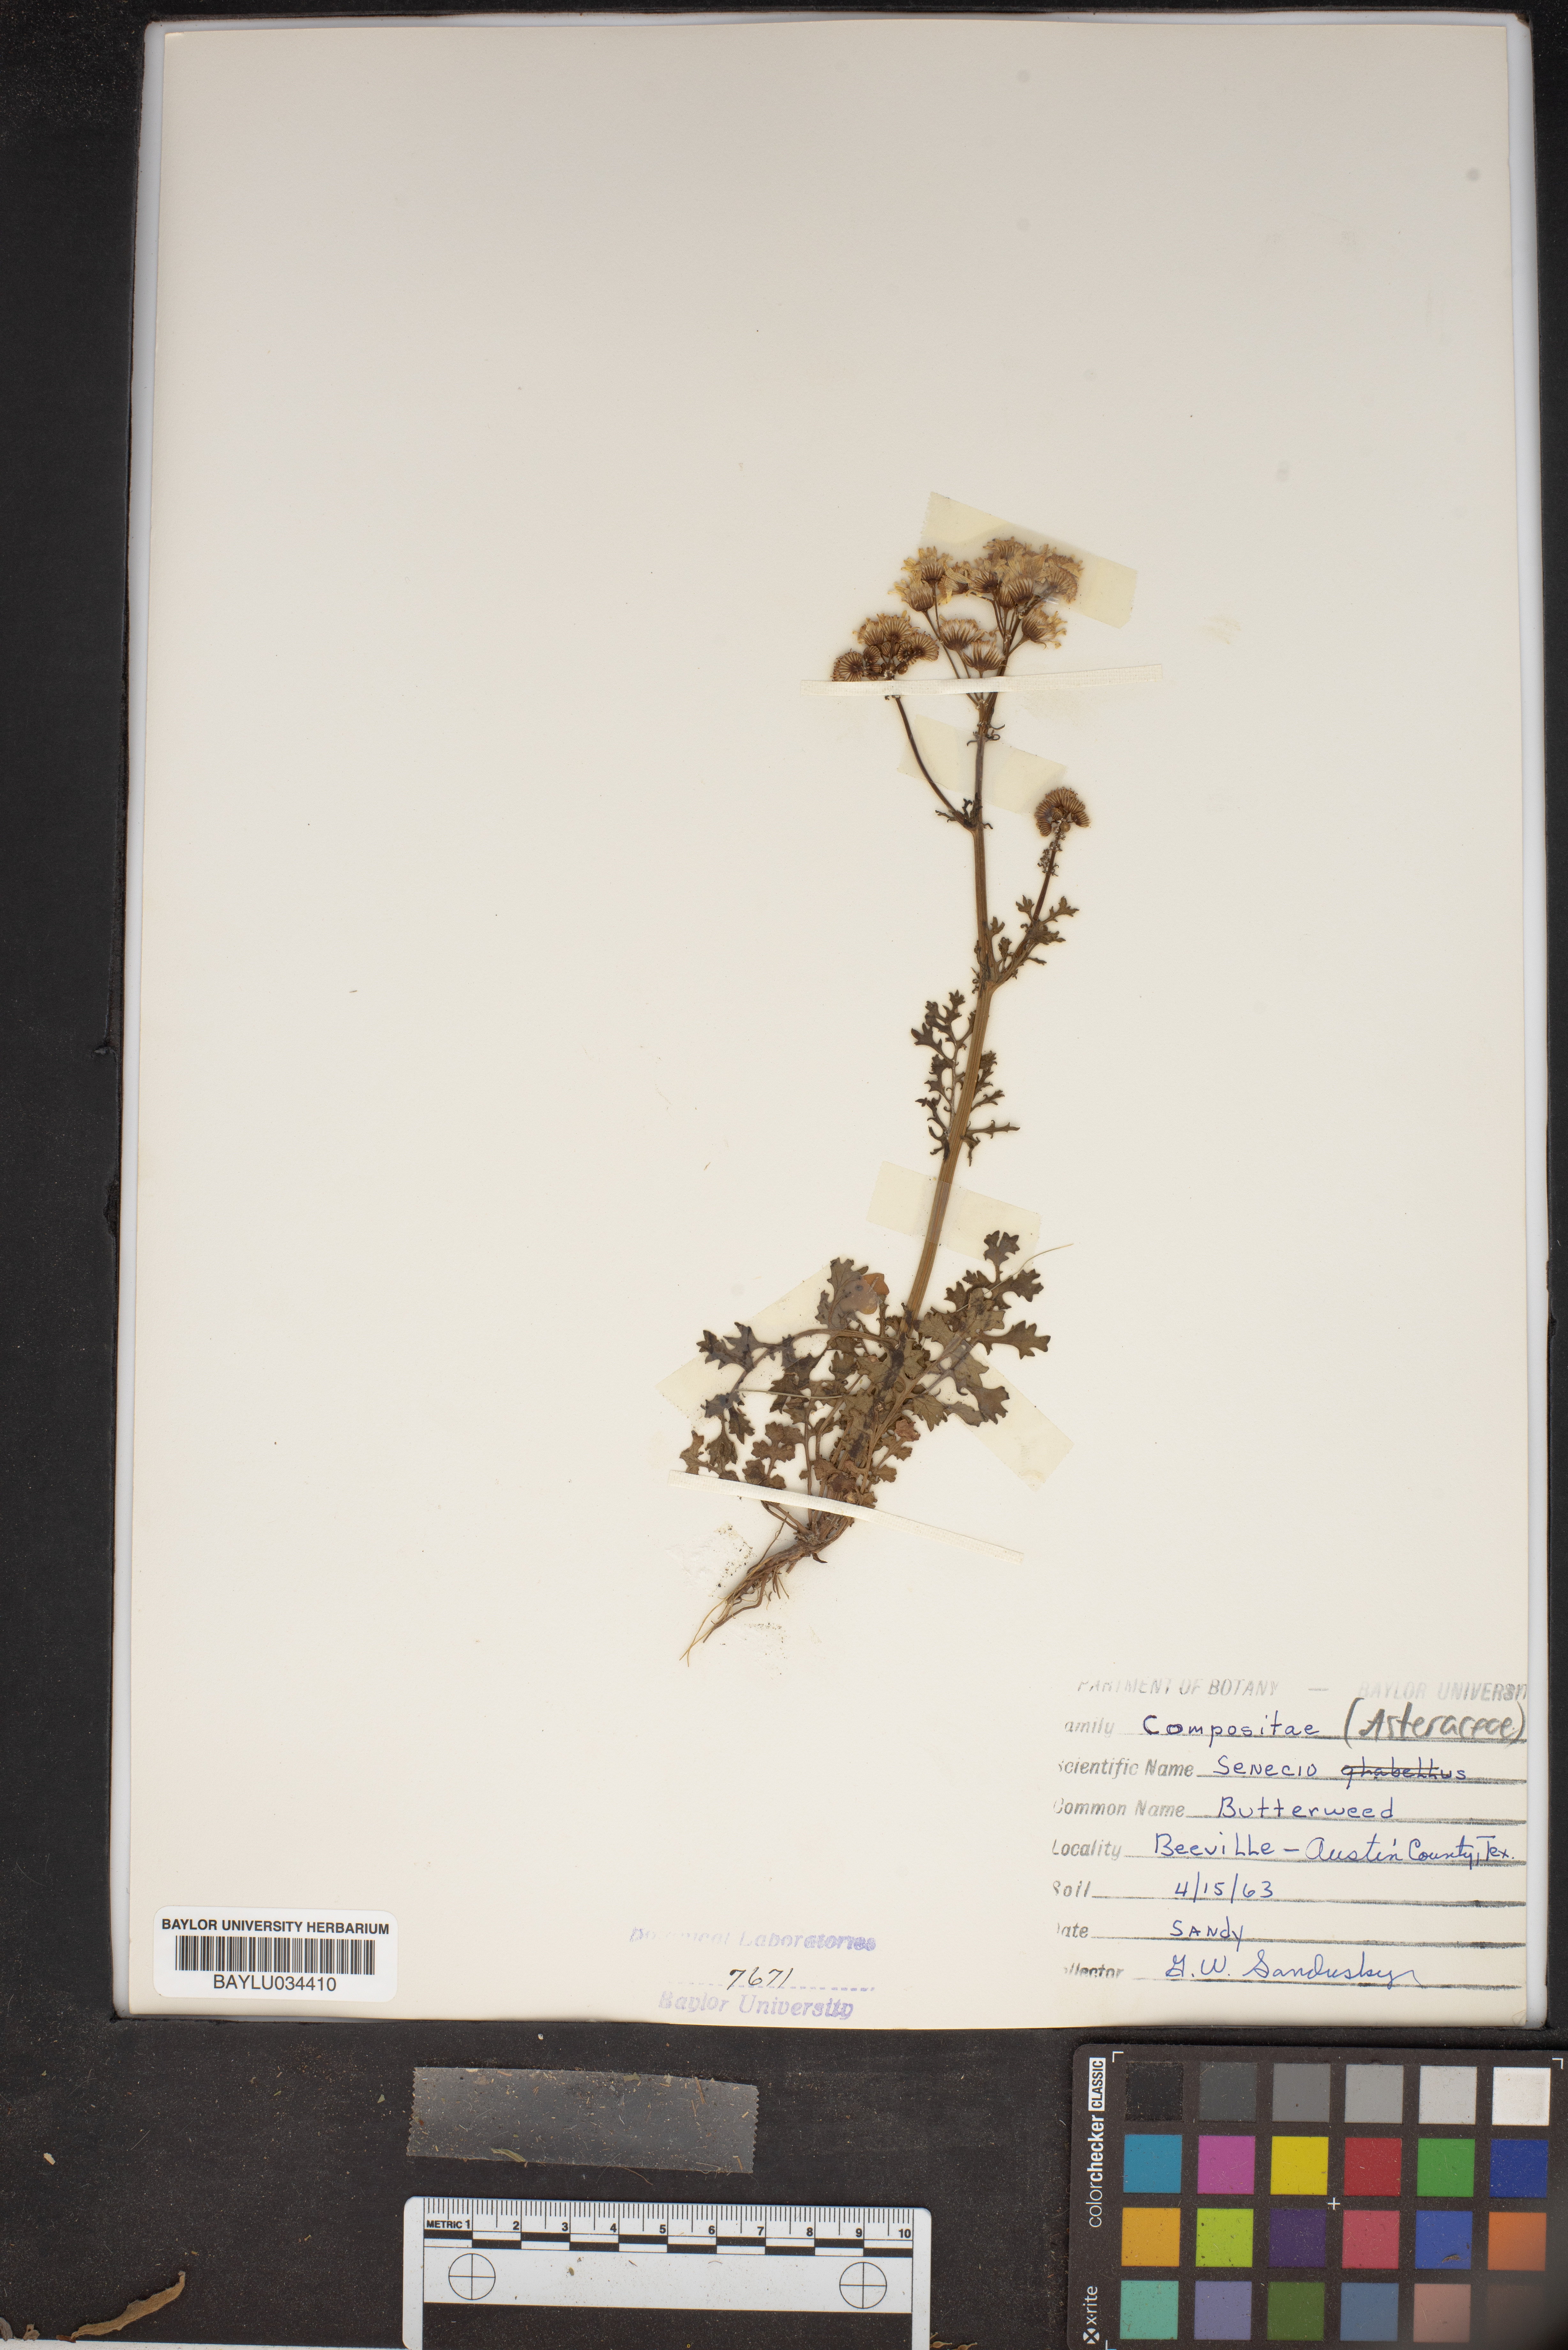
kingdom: Plantae
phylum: Tracheophyta
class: Magnoliopsida
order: Asterales
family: Asteraceae
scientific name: Asteraceae
